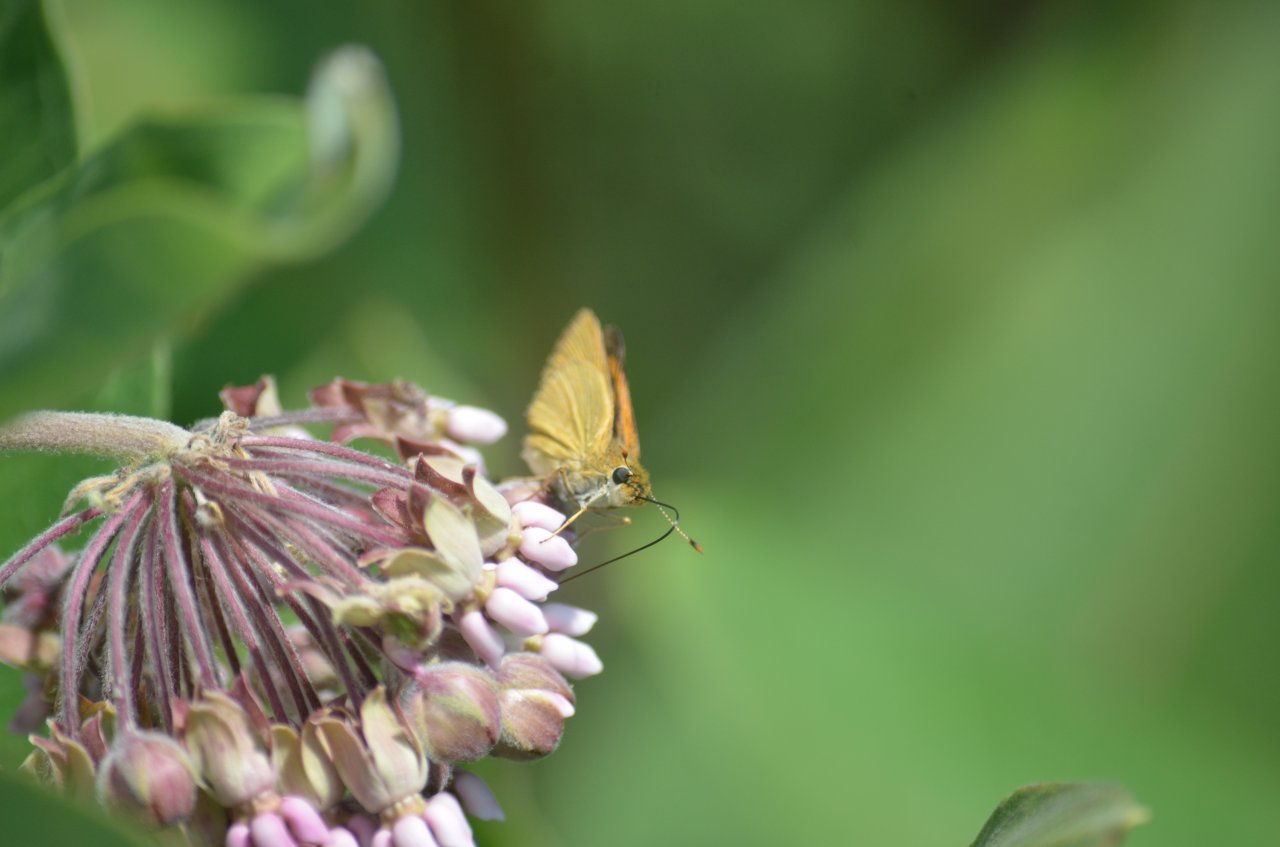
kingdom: Animalia
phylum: Arthropoda
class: Insecta
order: Lepidoptera
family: Hesperiidae
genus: Atrytone
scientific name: Atrytone delaware
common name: Delaware Skipper
